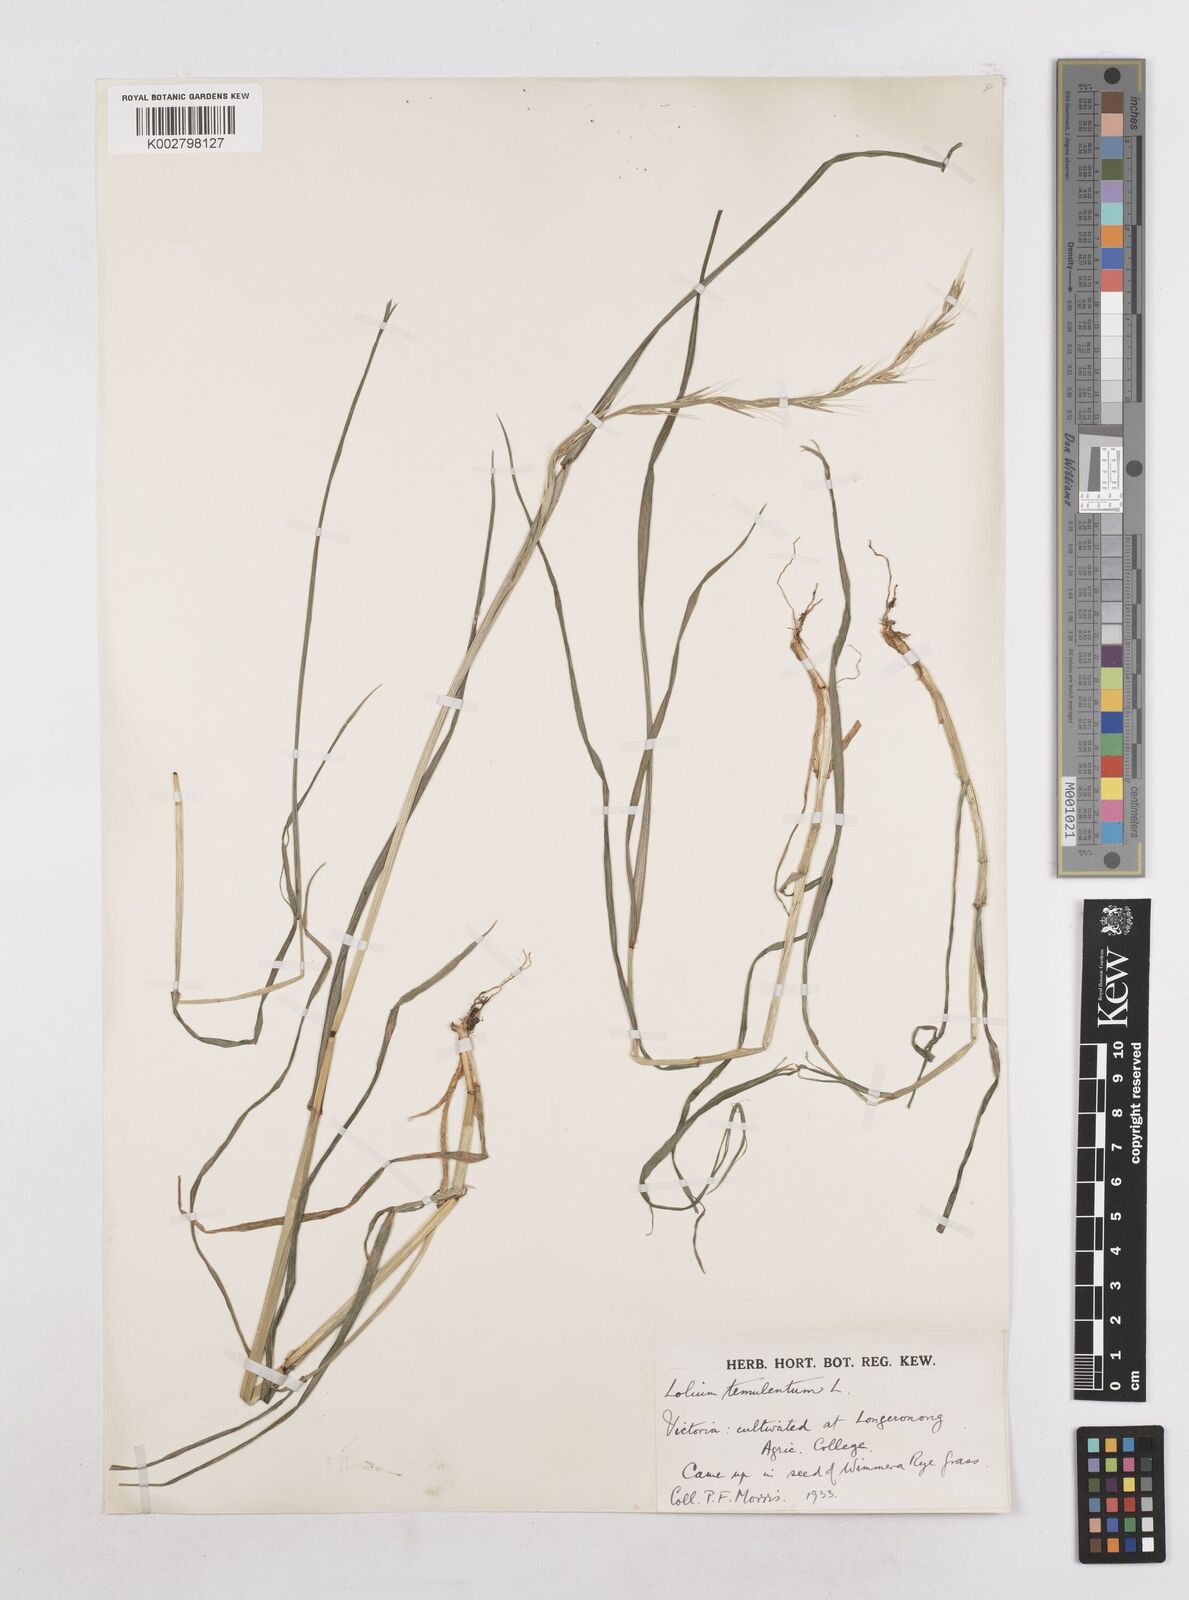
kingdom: Plantae
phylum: Tracheophyta
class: Liliopsida
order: Poales
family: Poaceae
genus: Lolium
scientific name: Lolium temulentum
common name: Darnel
